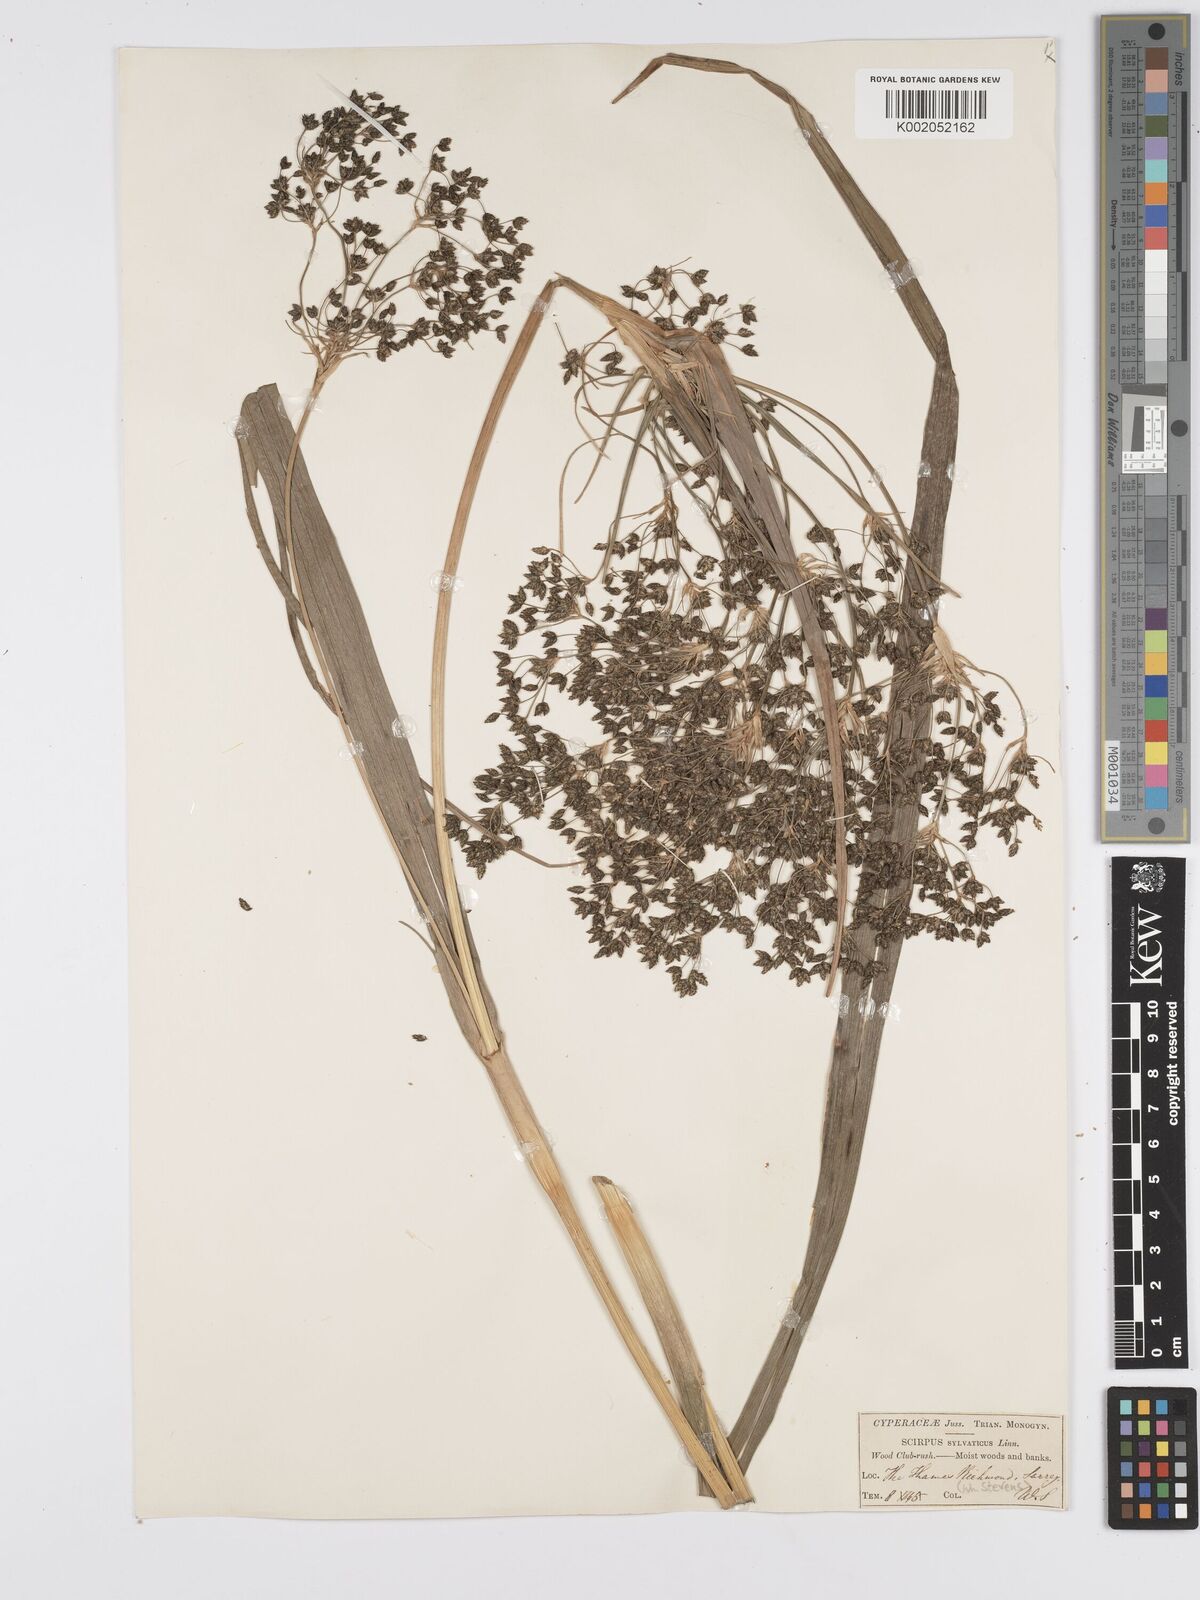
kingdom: Plantae
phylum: Tracheophyta
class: Liliopsida
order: Poales
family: Cyperaceae
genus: Scirpus
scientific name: Scirpus sylvaticus
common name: Wood club-rush
